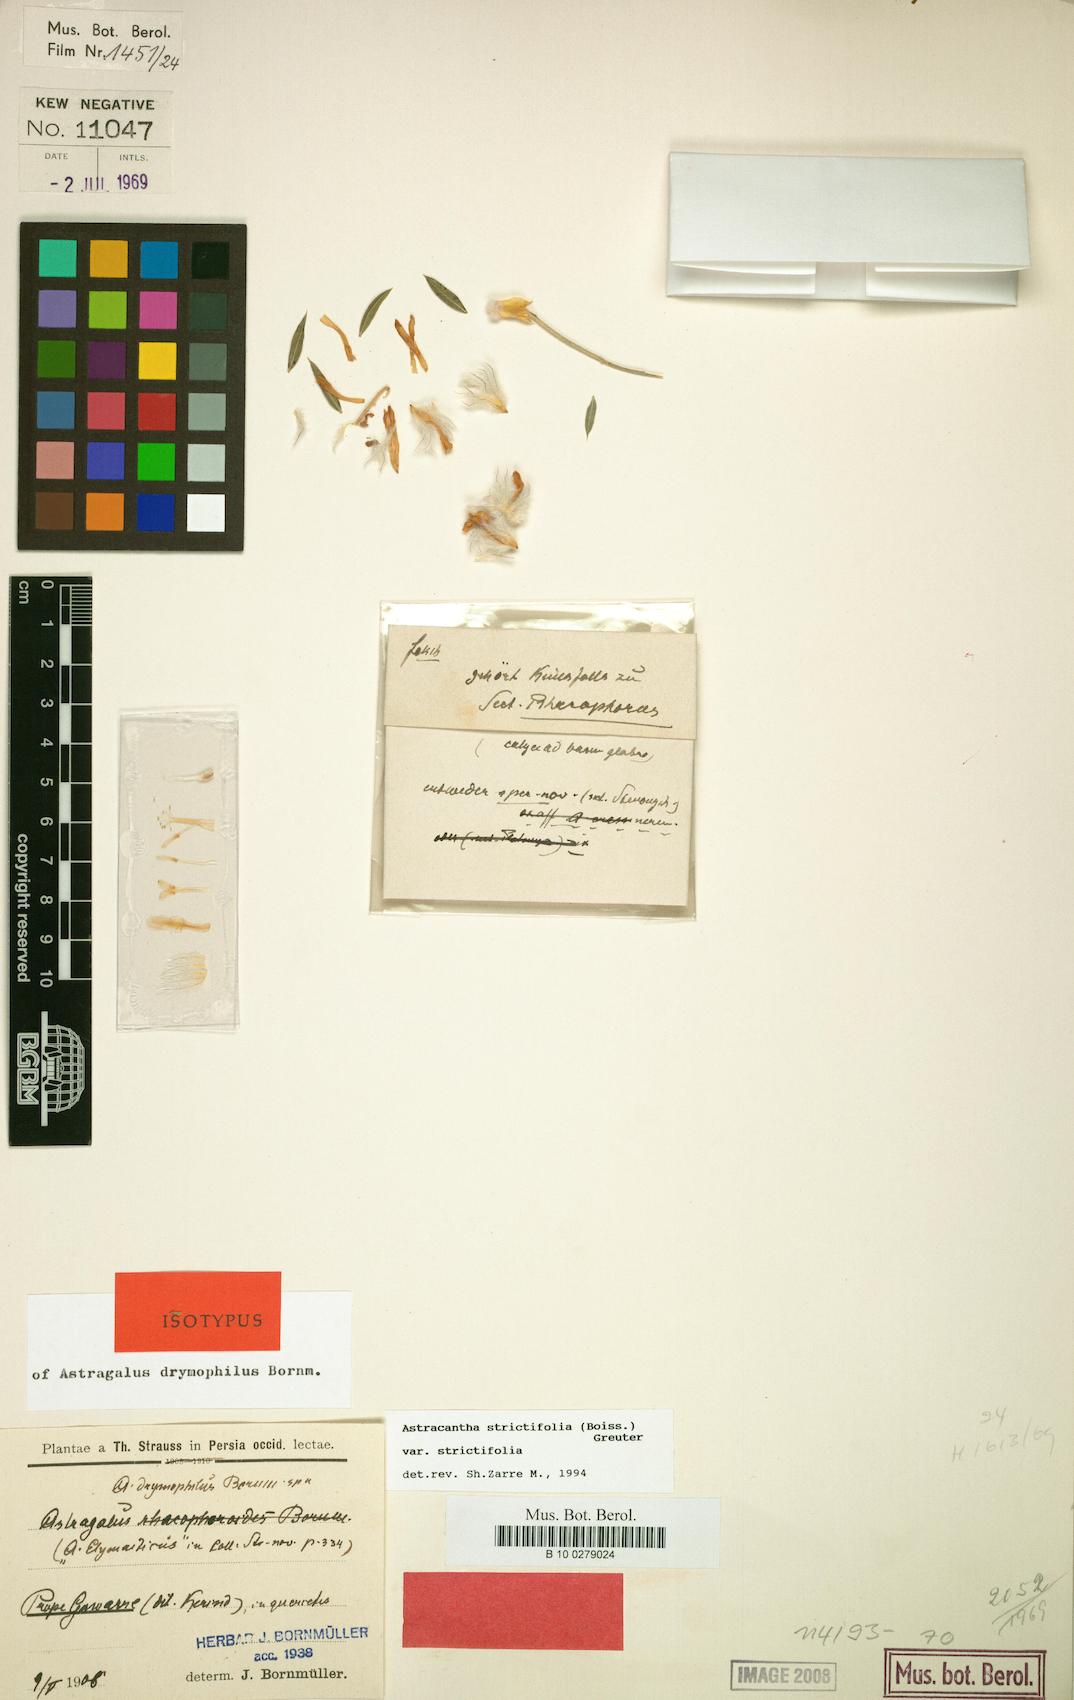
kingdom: Plantae
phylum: Tracheophyta
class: Magnoliopsida
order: Fabales
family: Fabaceae
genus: Astragalus
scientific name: Astragalus strictifolius
